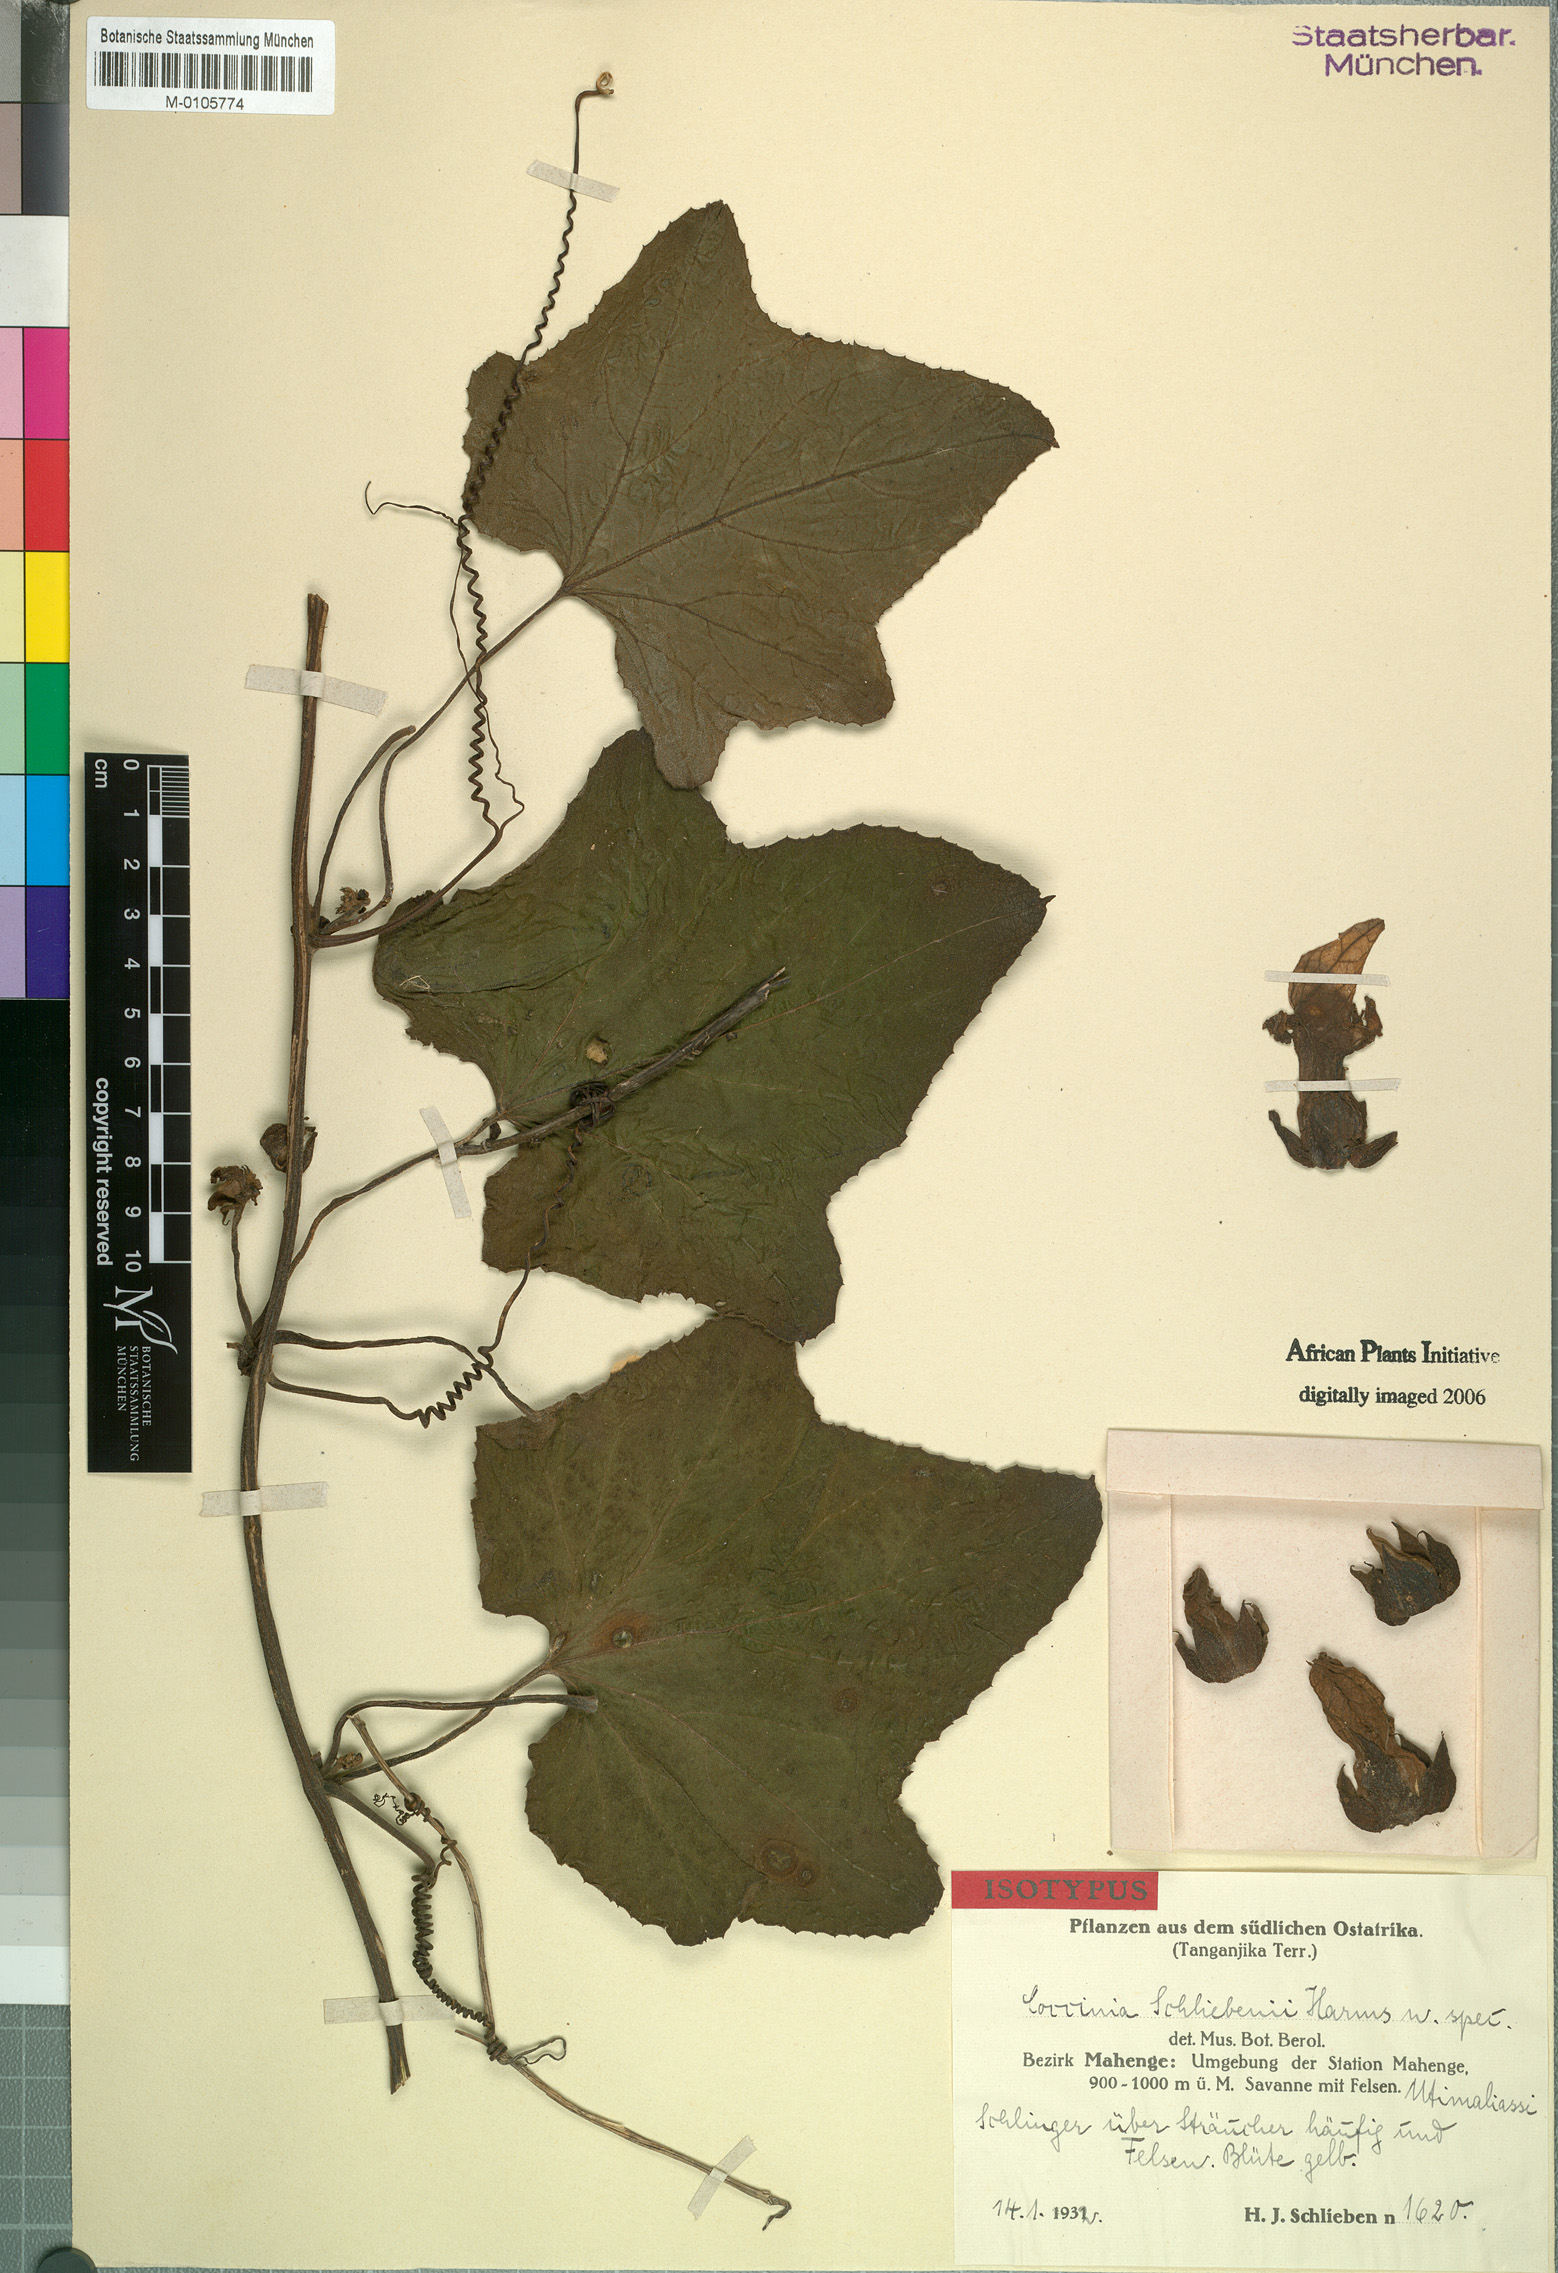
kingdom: Plantae
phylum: Tracheophyta
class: Magnoliopsida
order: Cucurbitales
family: Cucurbitaceae
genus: Coccinia
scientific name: Coccinia schliebenii
